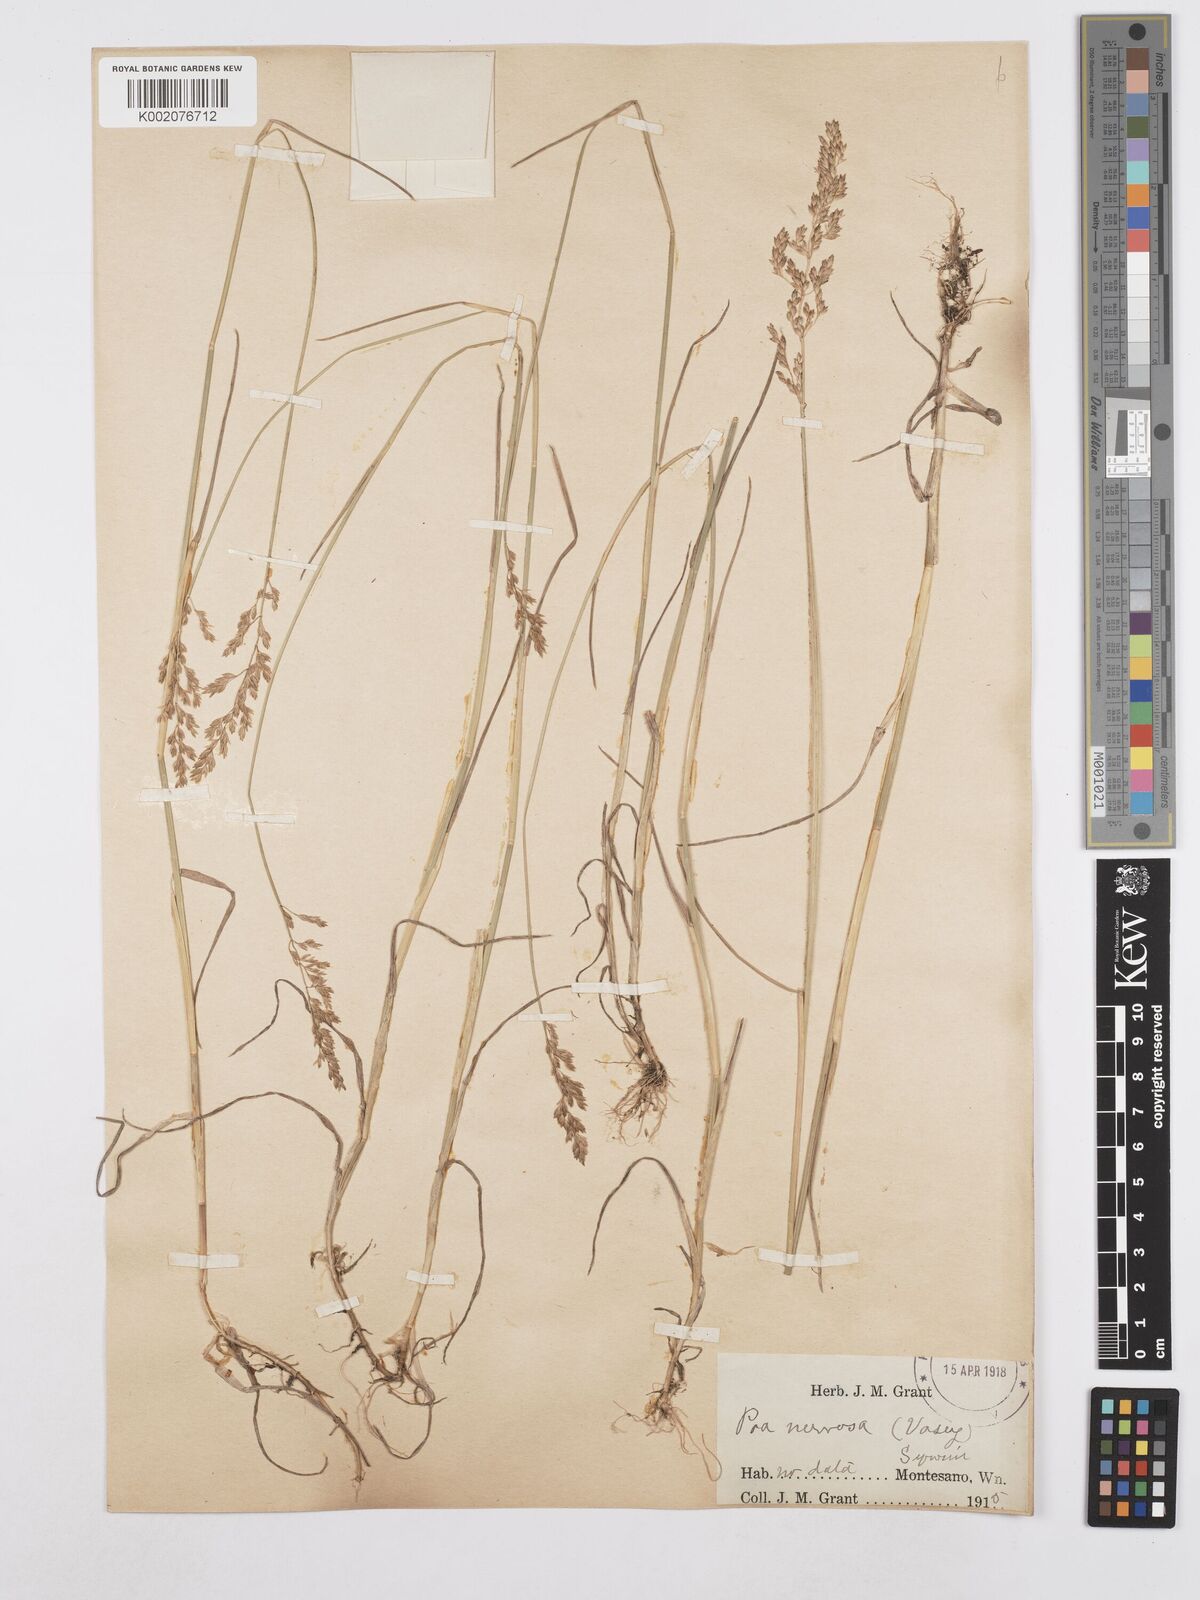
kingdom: Plantae
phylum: Tracheophyta
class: Liliopsida
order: Poales
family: Poaceae
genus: Poa
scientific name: Poa nervosa
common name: Hooker's bluegrass
